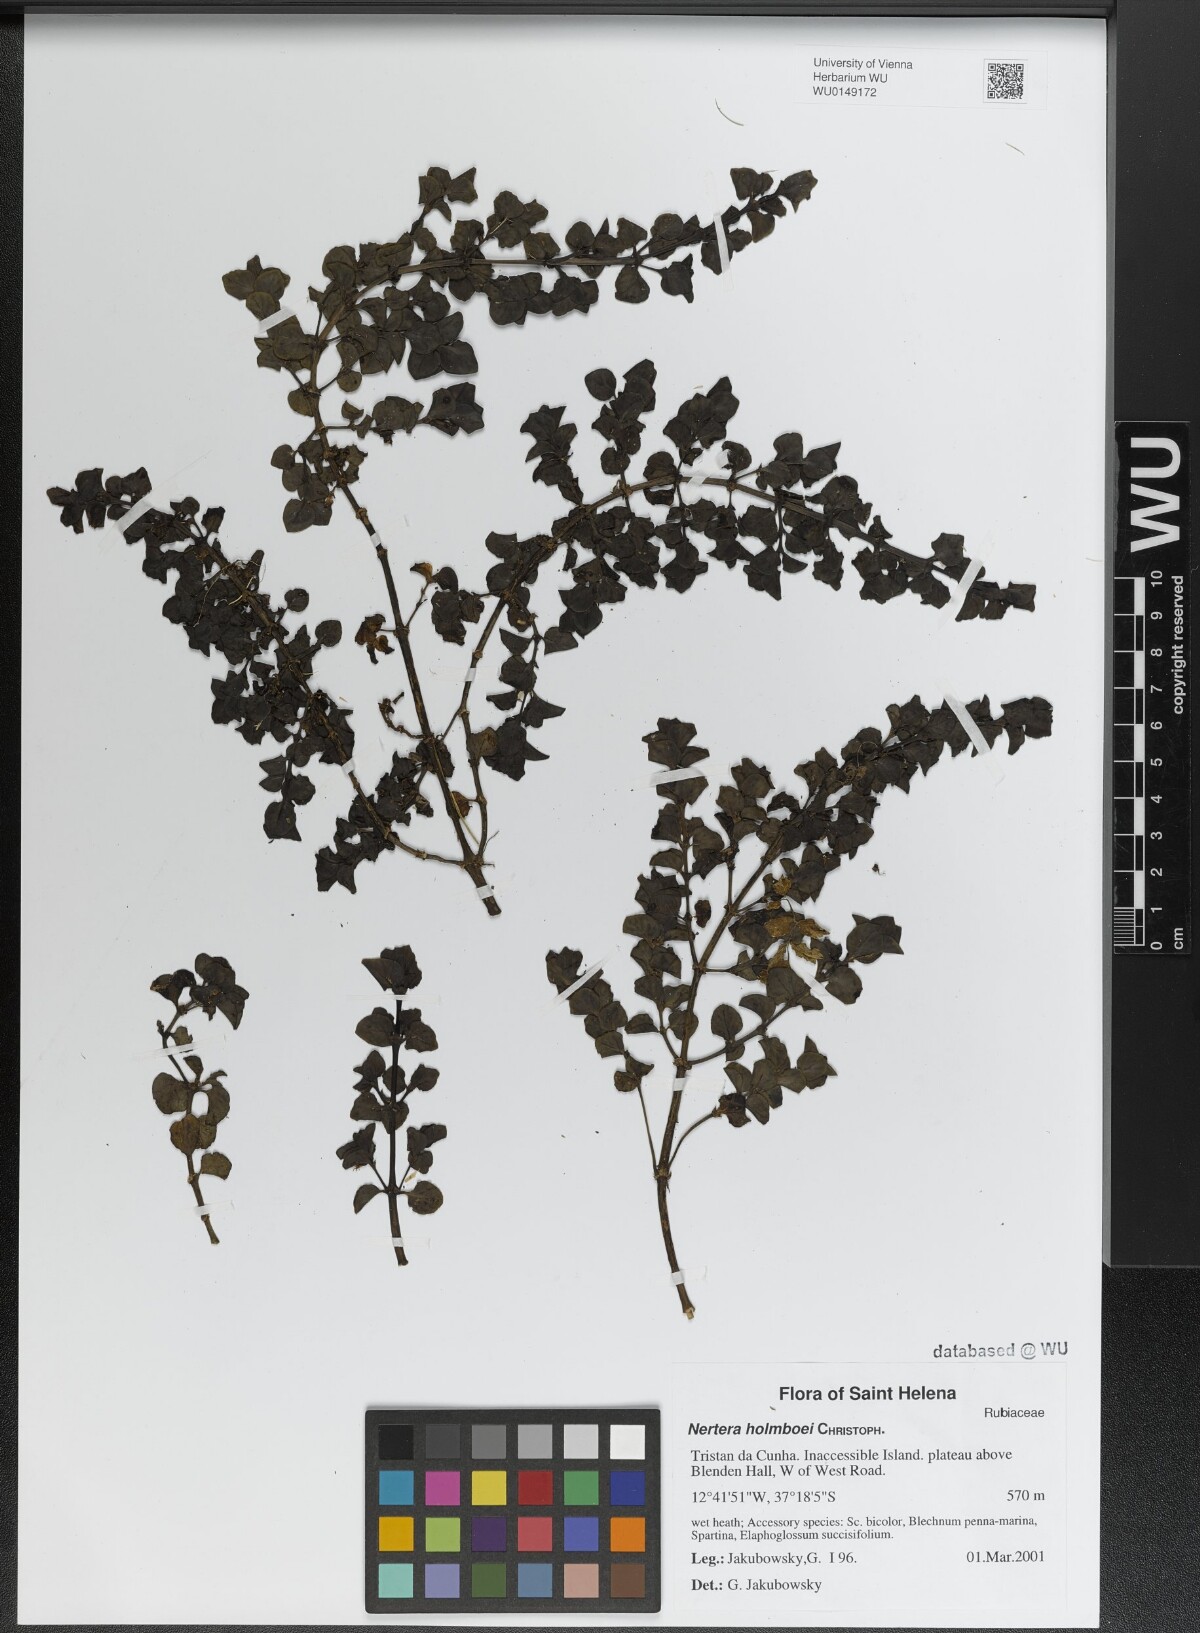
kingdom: Plantae
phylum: Tracheophyta
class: Magnoliopsida
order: Gentianales
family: Rubiaceae
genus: Nertera
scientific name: Nertera holmboei
